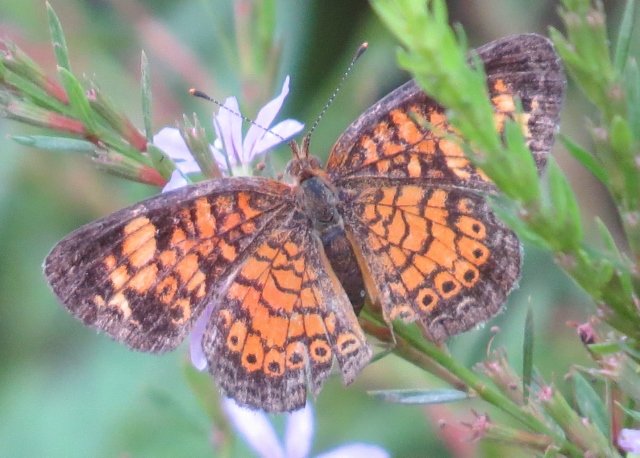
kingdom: Animalia
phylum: Arthropoda
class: Insecta
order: Lepidoptera
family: Nymphalidae
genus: Phyciodes
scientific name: Phyciodes tharos
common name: Pearl Crescent
